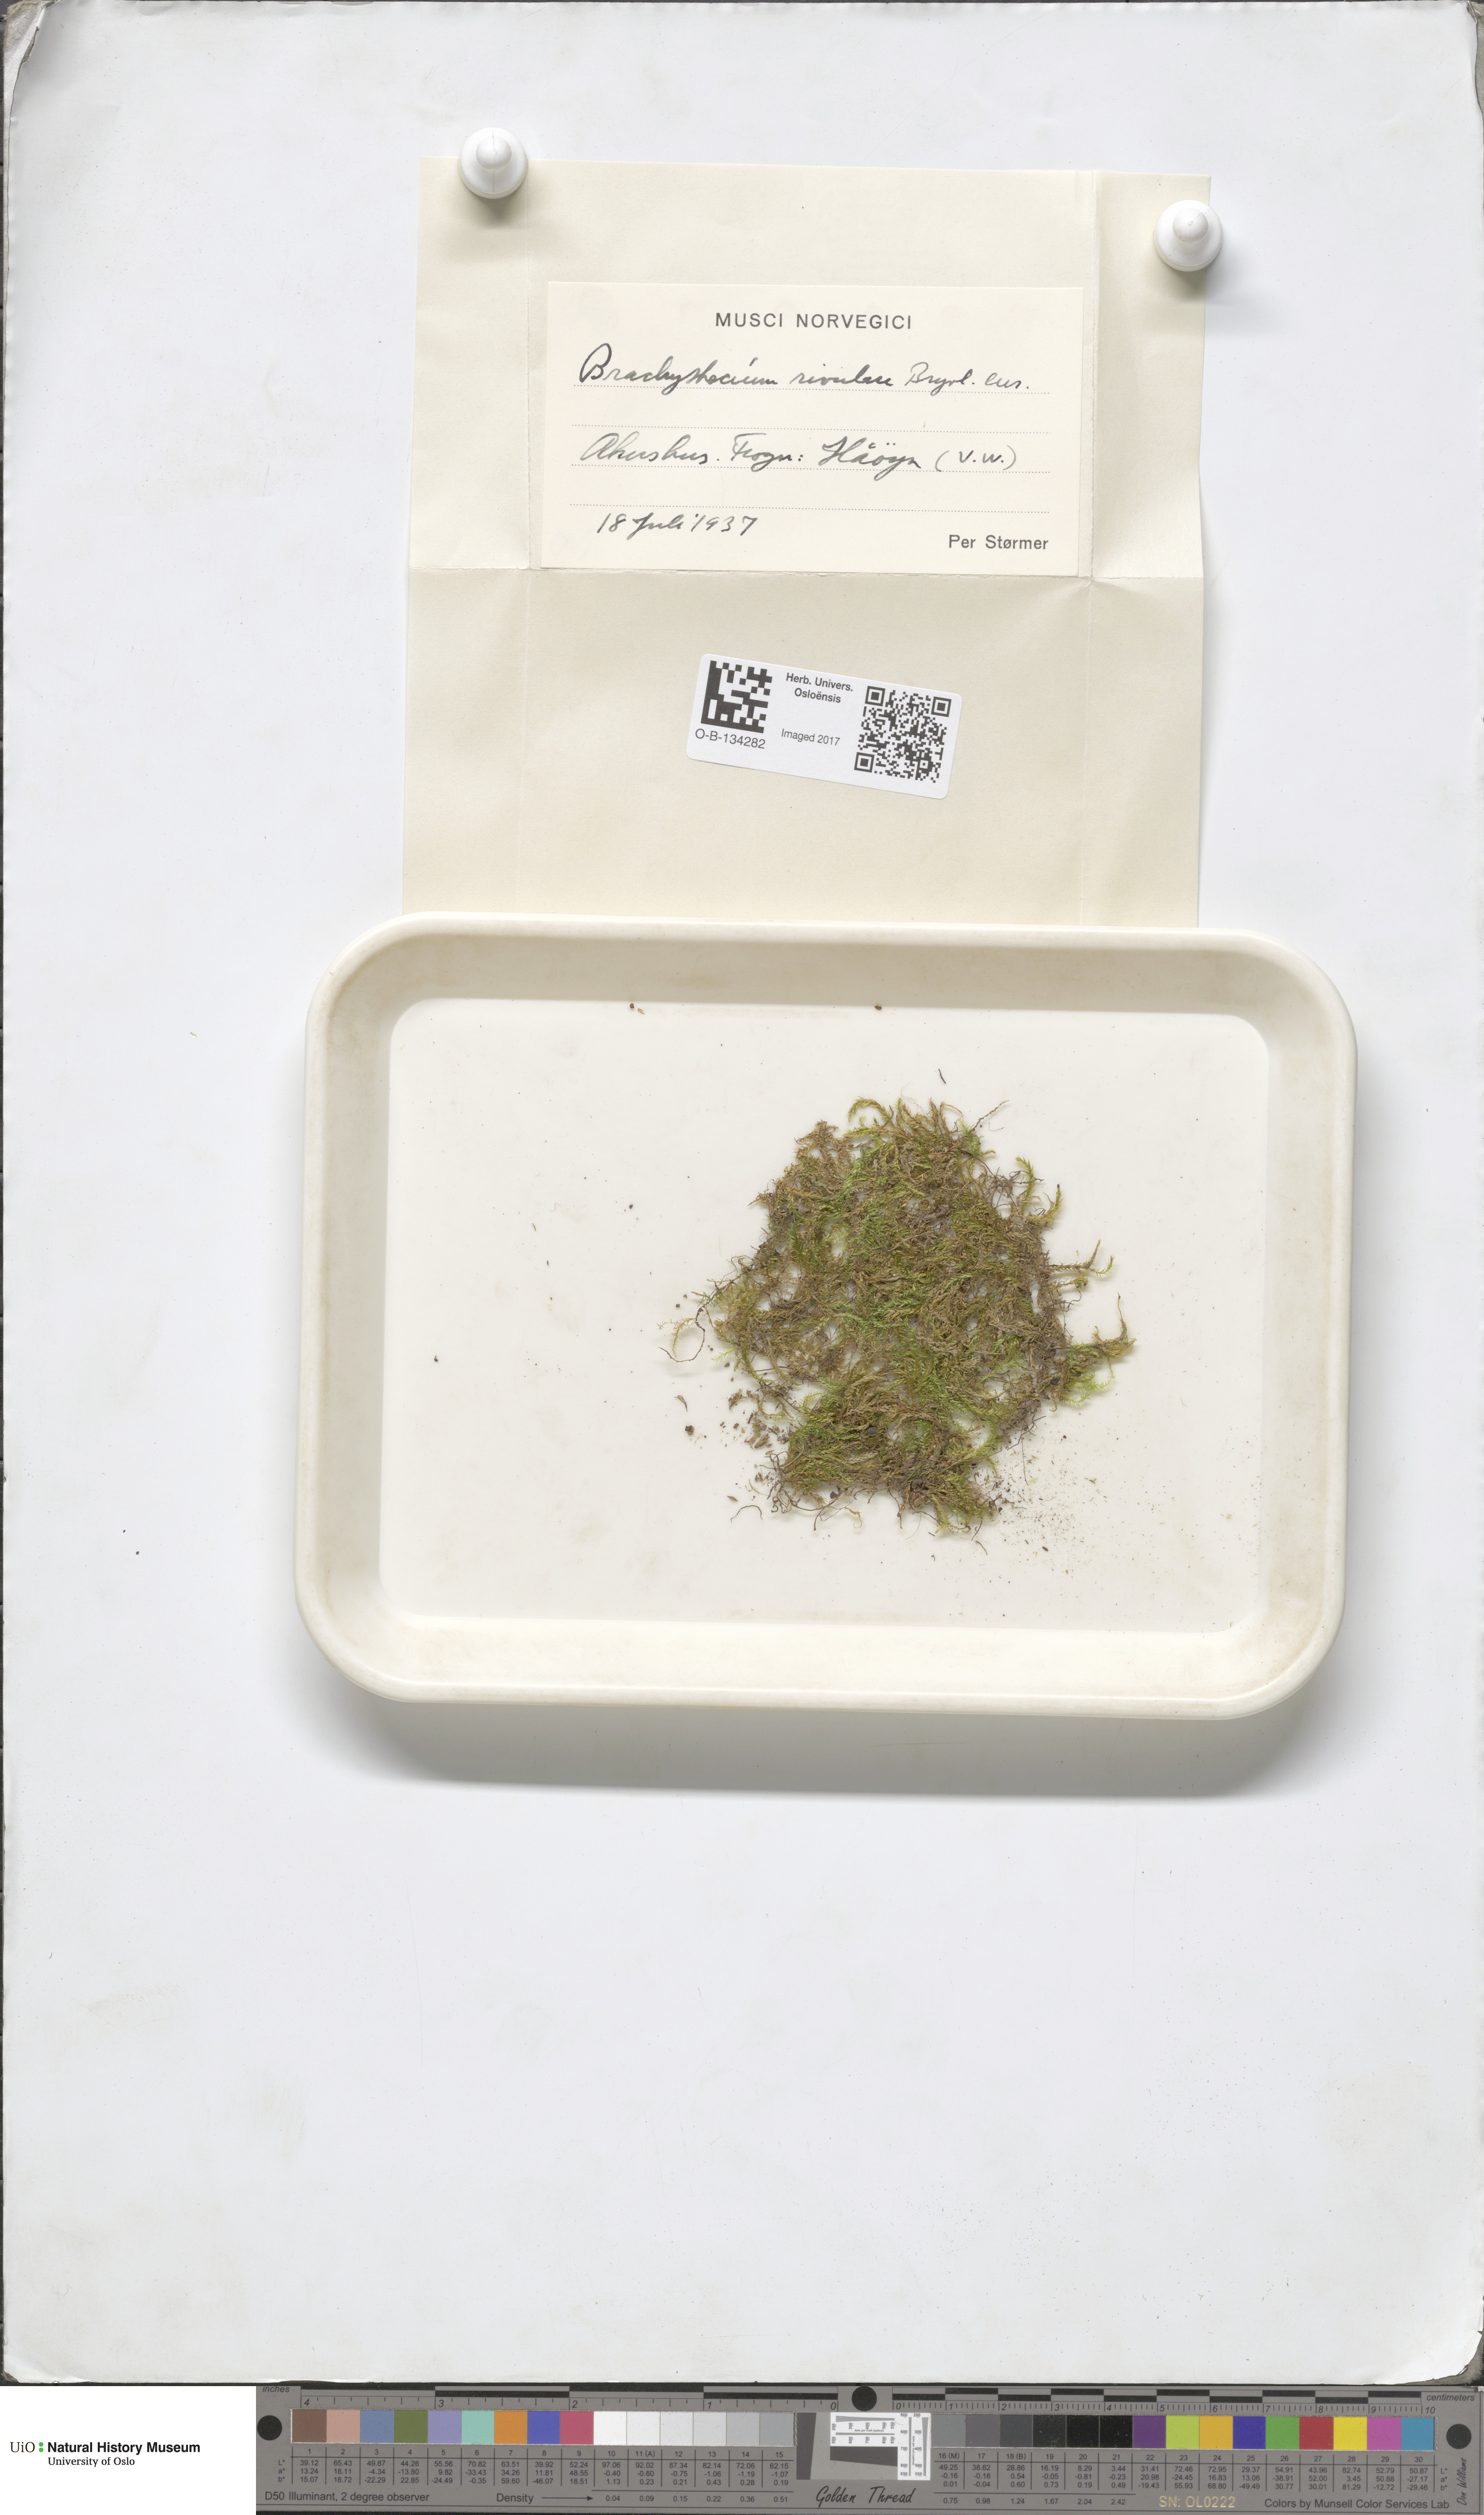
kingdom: Plantae
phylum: Bryophyta
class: Bryopsida
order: Hypnales
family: Brachytheciaceae
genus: Brachythecium
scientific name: Brachythecium rivulare
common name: River ragged moss
